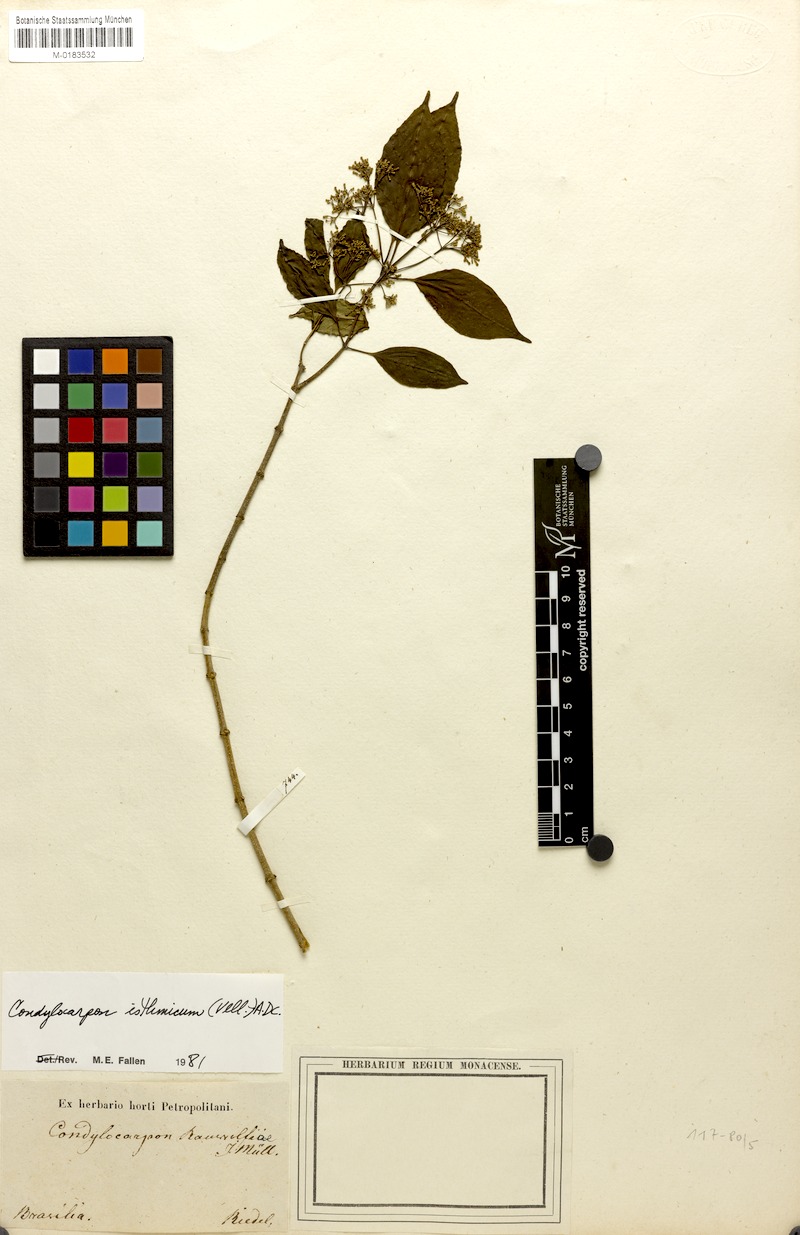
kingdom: Plantae
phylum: Tracheophyta
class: Magnoliopsida
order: Gentianales
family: Apocynaceae
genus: Condylocarpon
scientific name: Condylocarpon isthmicum
